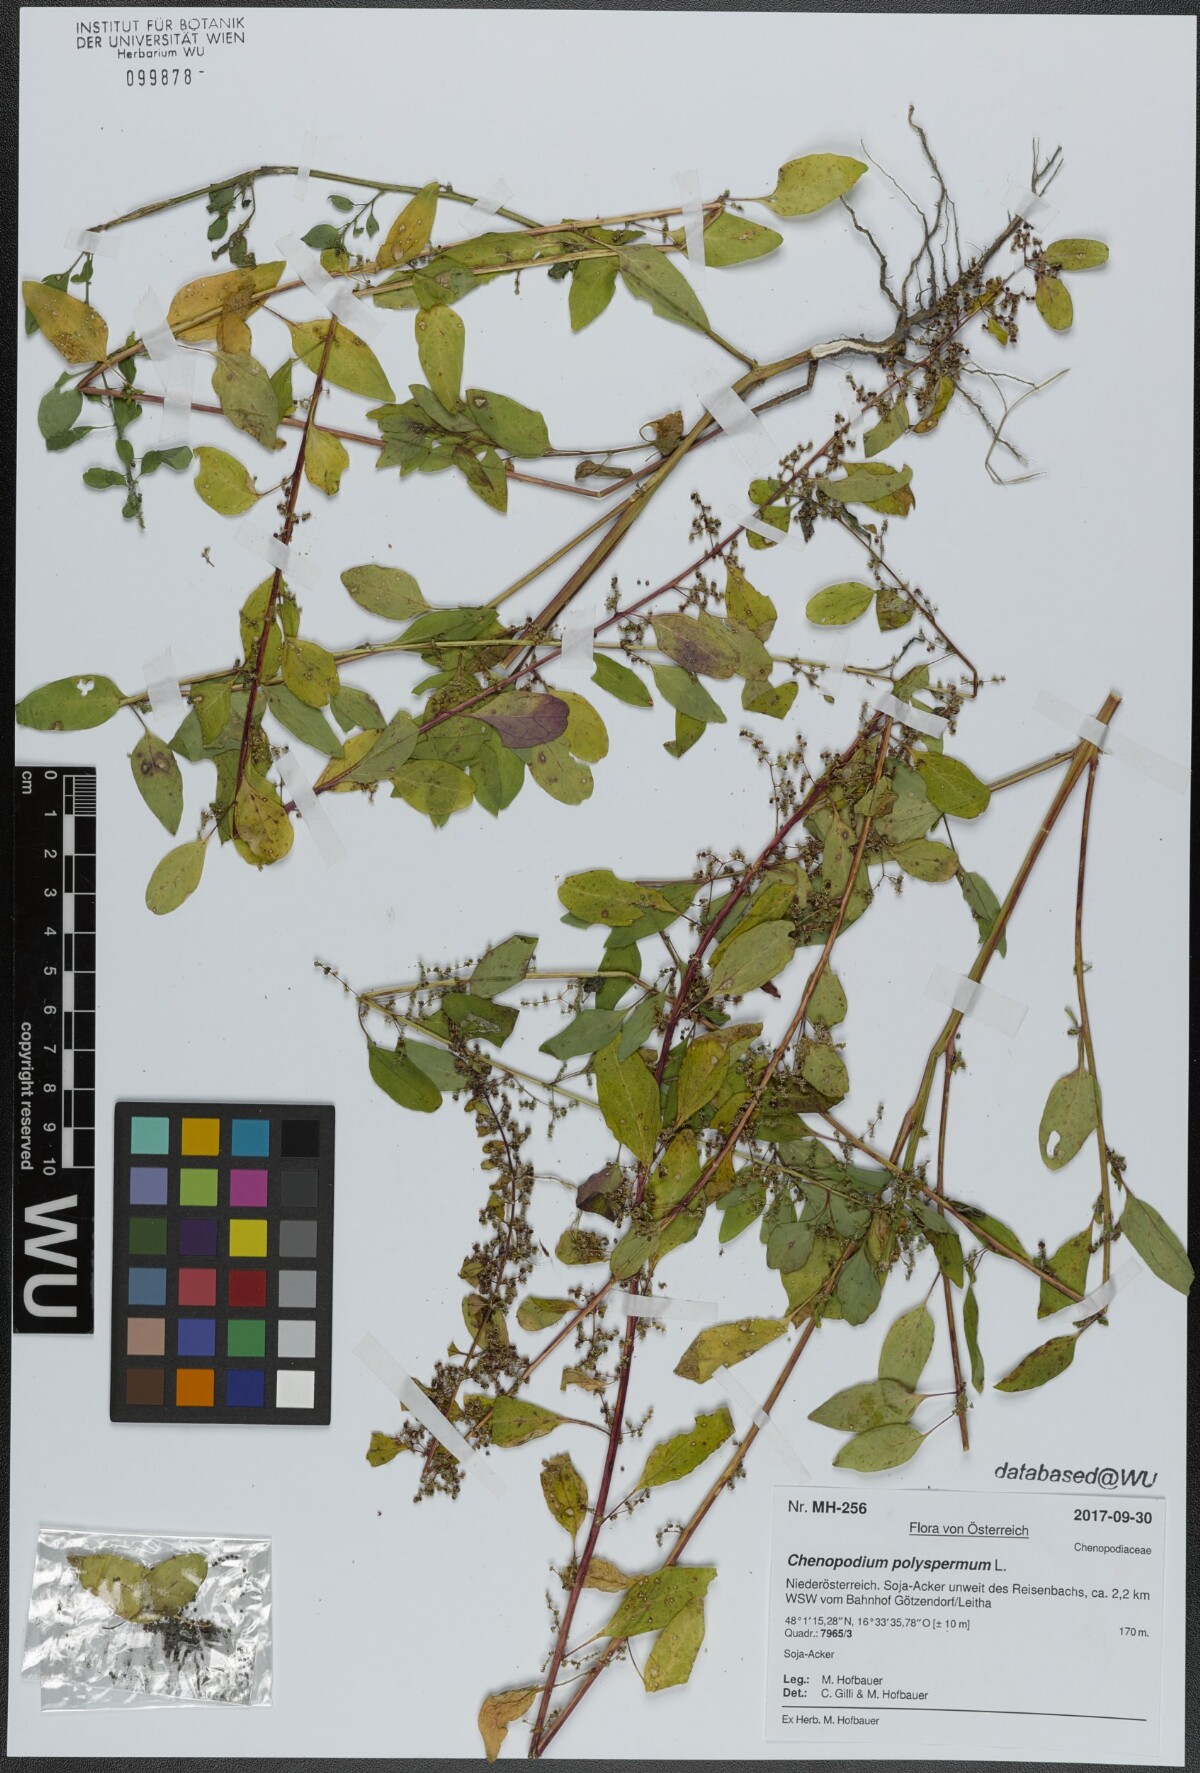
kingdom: Plantae
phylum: Tracheophyta
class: Magnoliopsida
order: Caryophyllales
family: Amaranthaceae
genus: Lipandra
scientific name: Lipandra polysperma
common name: Many-seed goosefoot
